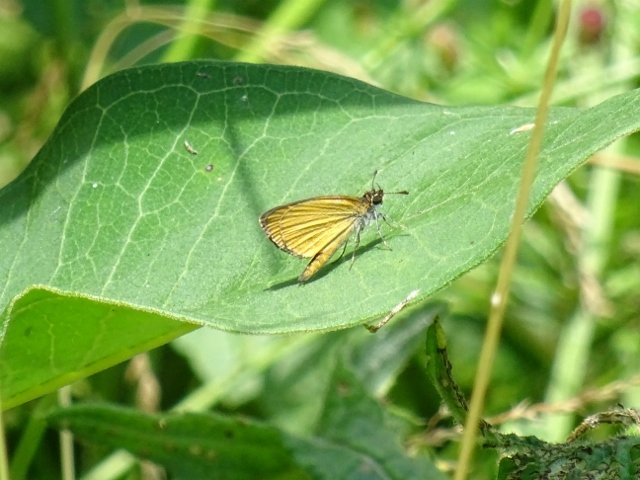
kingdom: Animalia
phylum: Arthropoda
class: Insecta
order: Lepidoptera
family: Hesperiidae
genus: Ancyloxypha
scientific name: Ancyloxypha numitor
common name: Least Skipper
